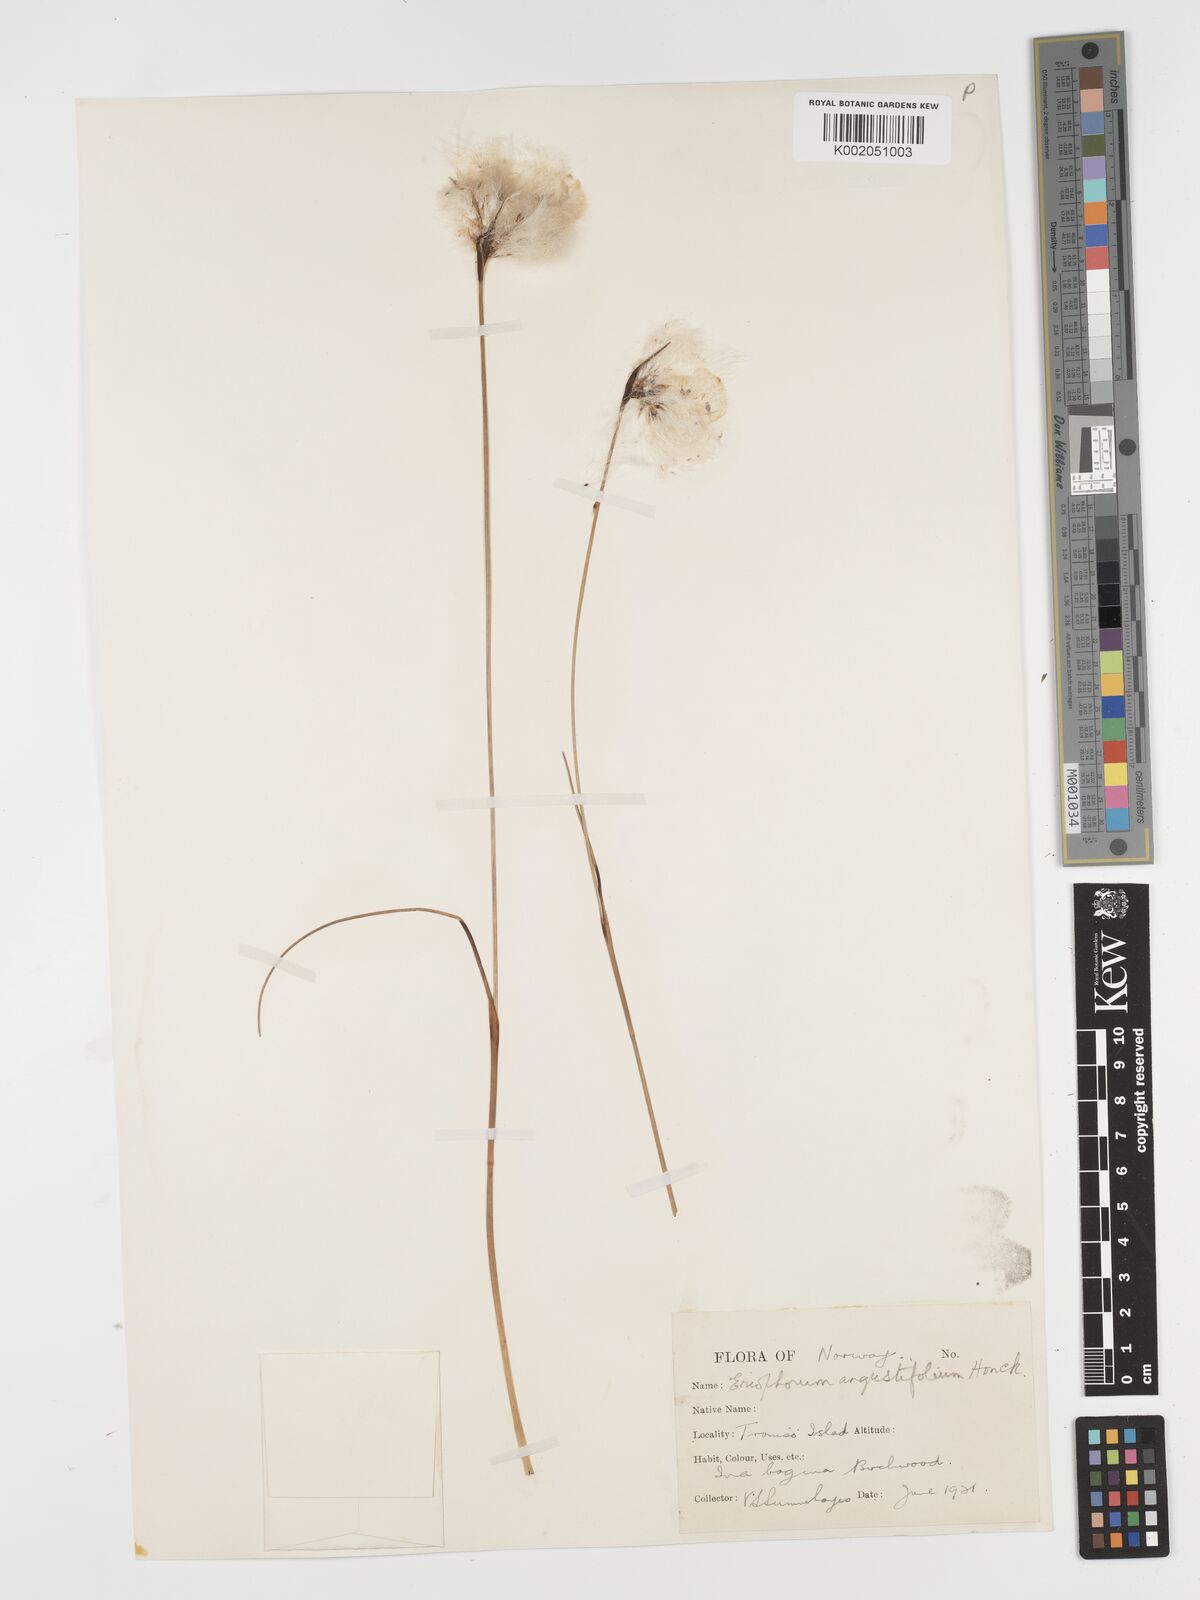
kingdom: Plantae
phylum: Tracheophyta
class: Liliopsida
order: Poales
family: Cyperaceae
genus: Eriophorum
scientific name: Eriophorum angustifolium
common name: Common cottongrass
